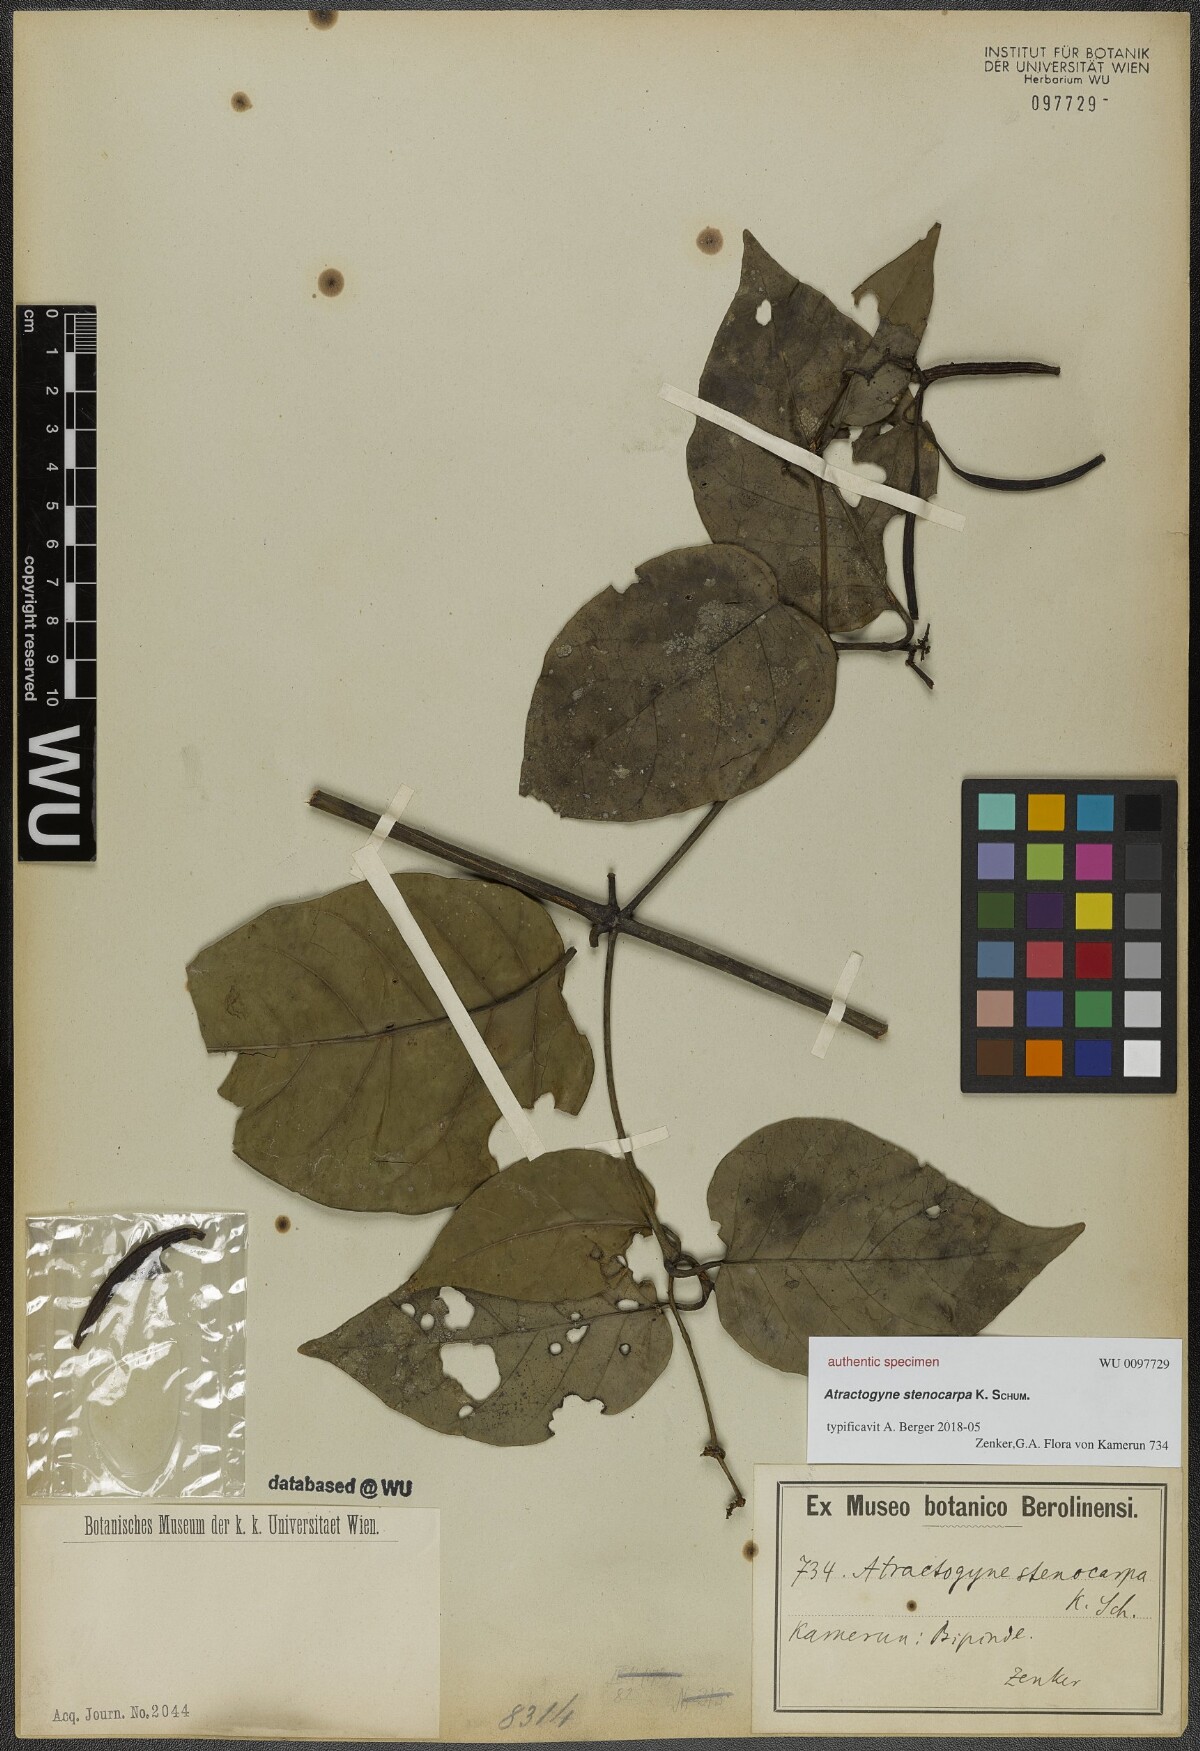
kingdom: Plantae
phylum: Tracheophyta
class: Magnoliopsida
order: Gentianales
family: Rubiaceae
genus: Atractogyne
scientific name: Atractogyne stenocarpa
